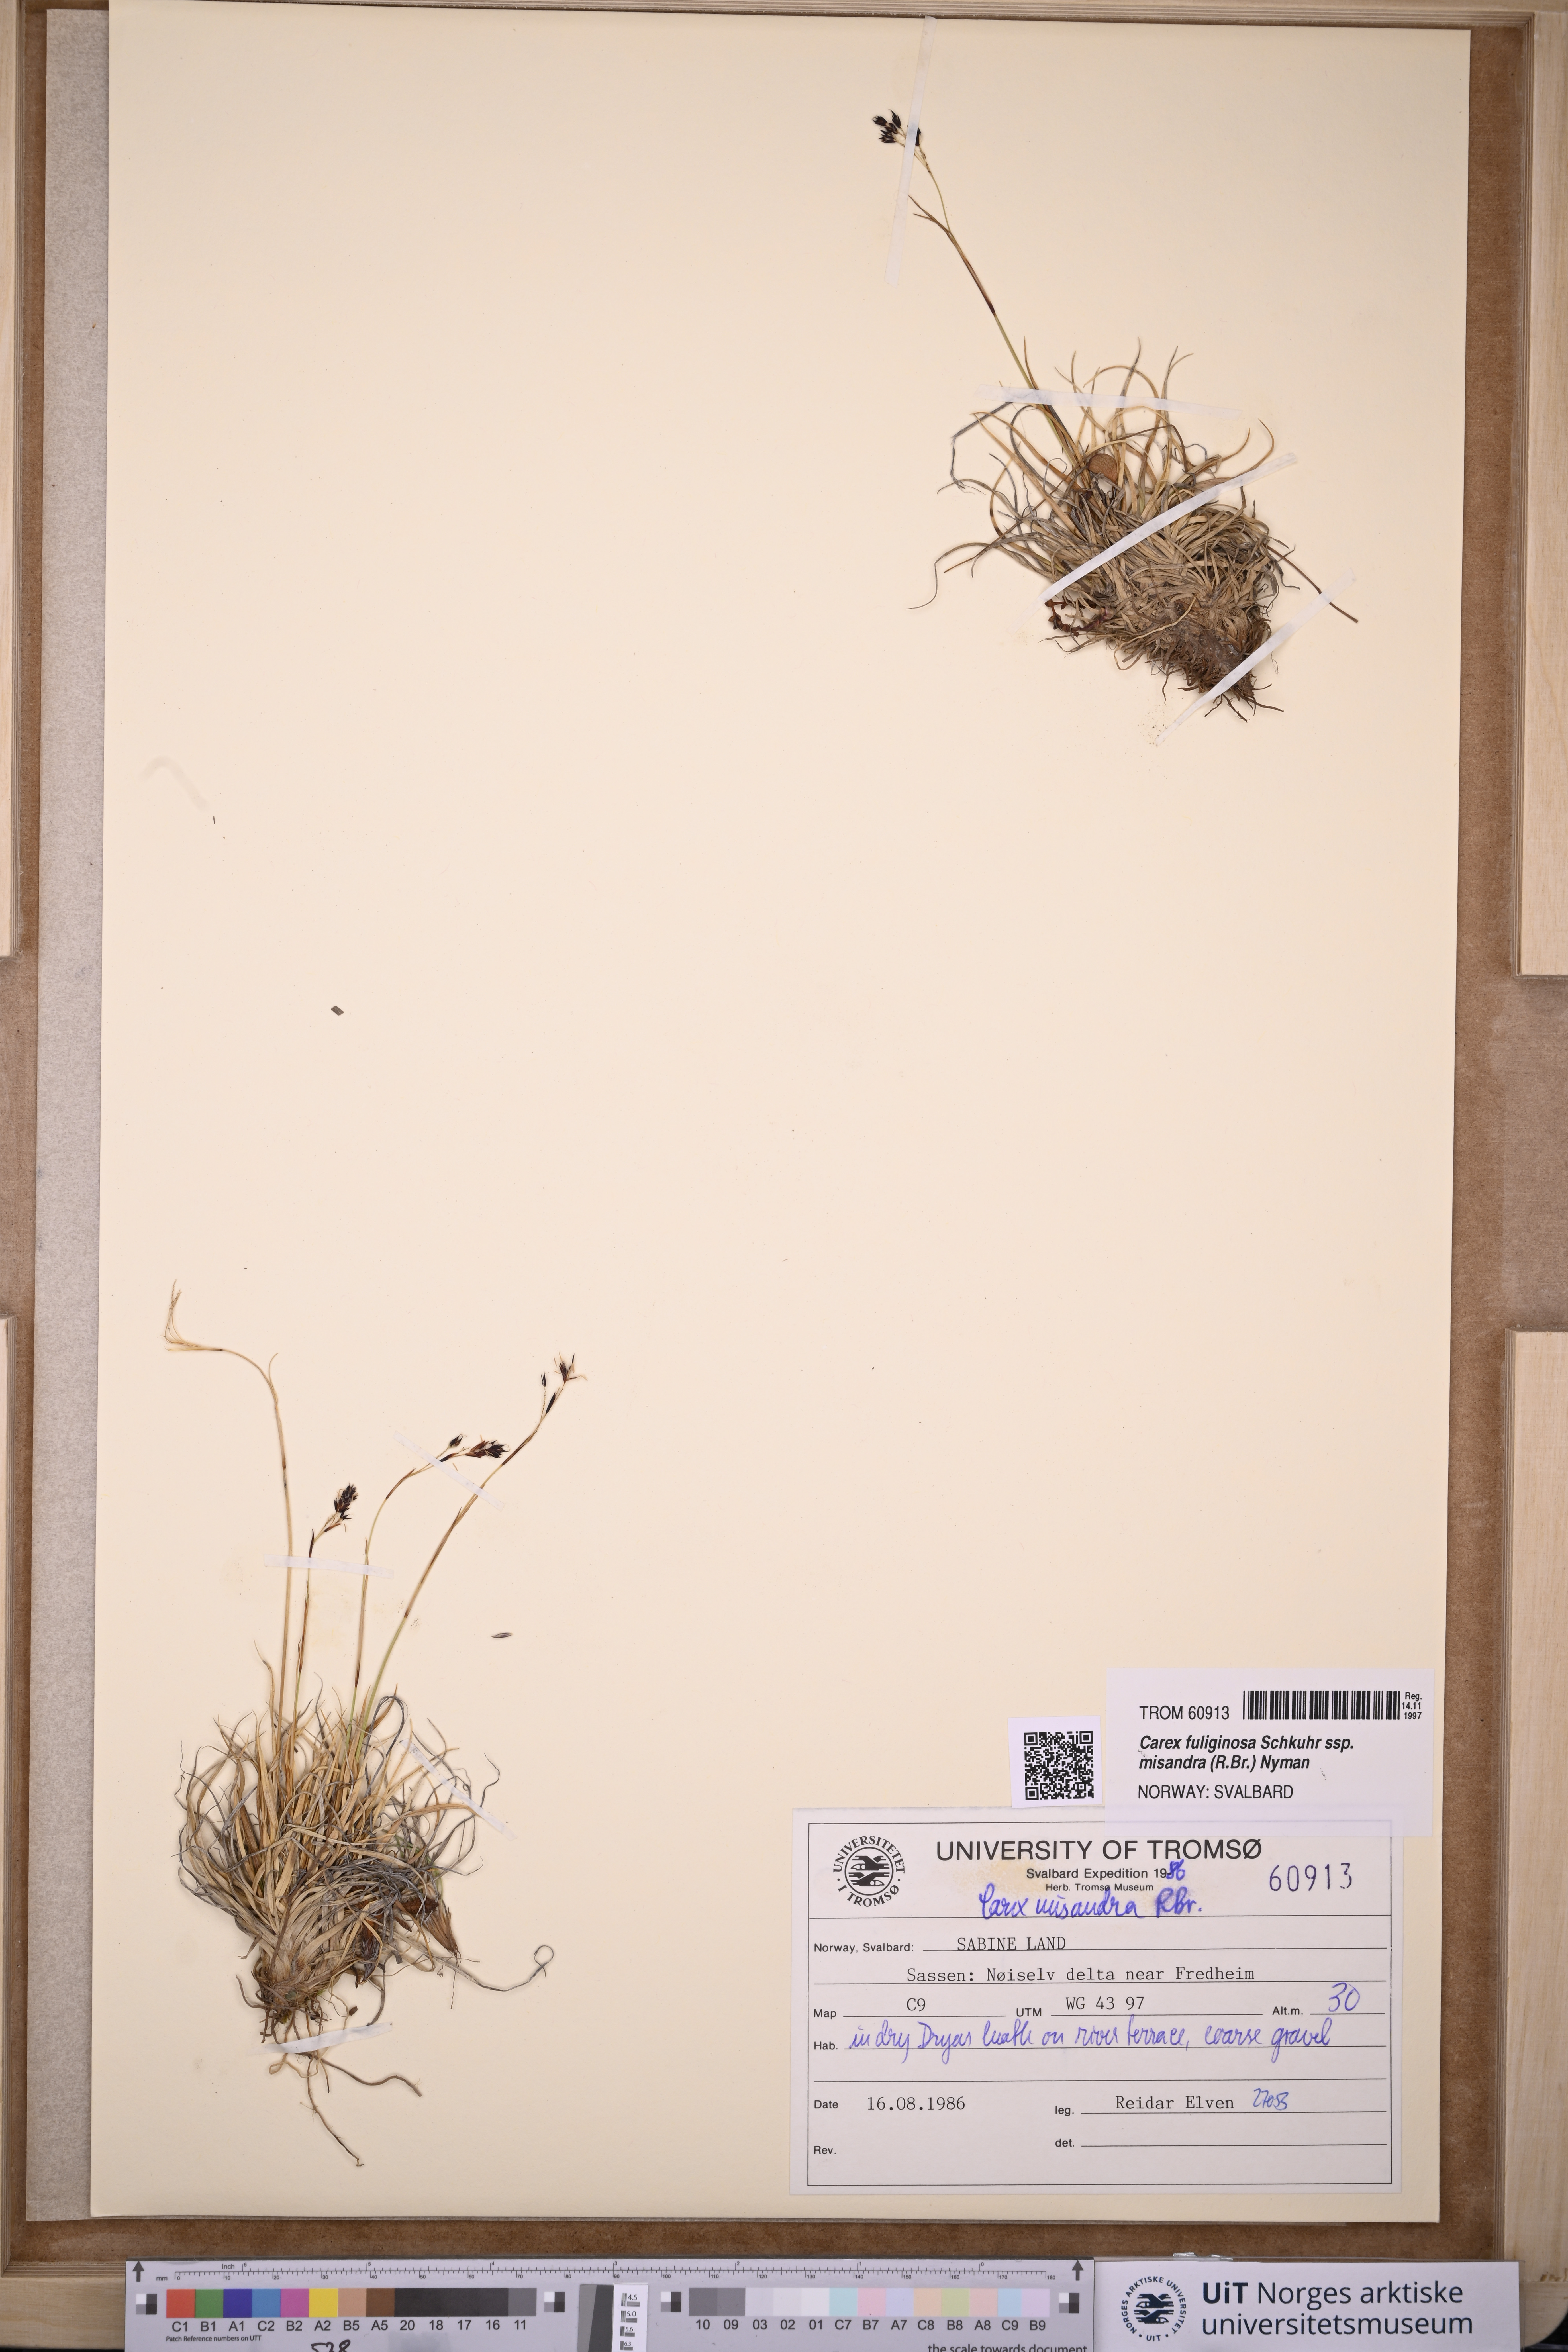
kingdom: Plantae
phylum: Tracheophyta
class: Liliopsida
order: Poales
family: Cyperaceae
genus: Carex
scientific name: Carex fuliginosa
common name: Few-flowered sedge
